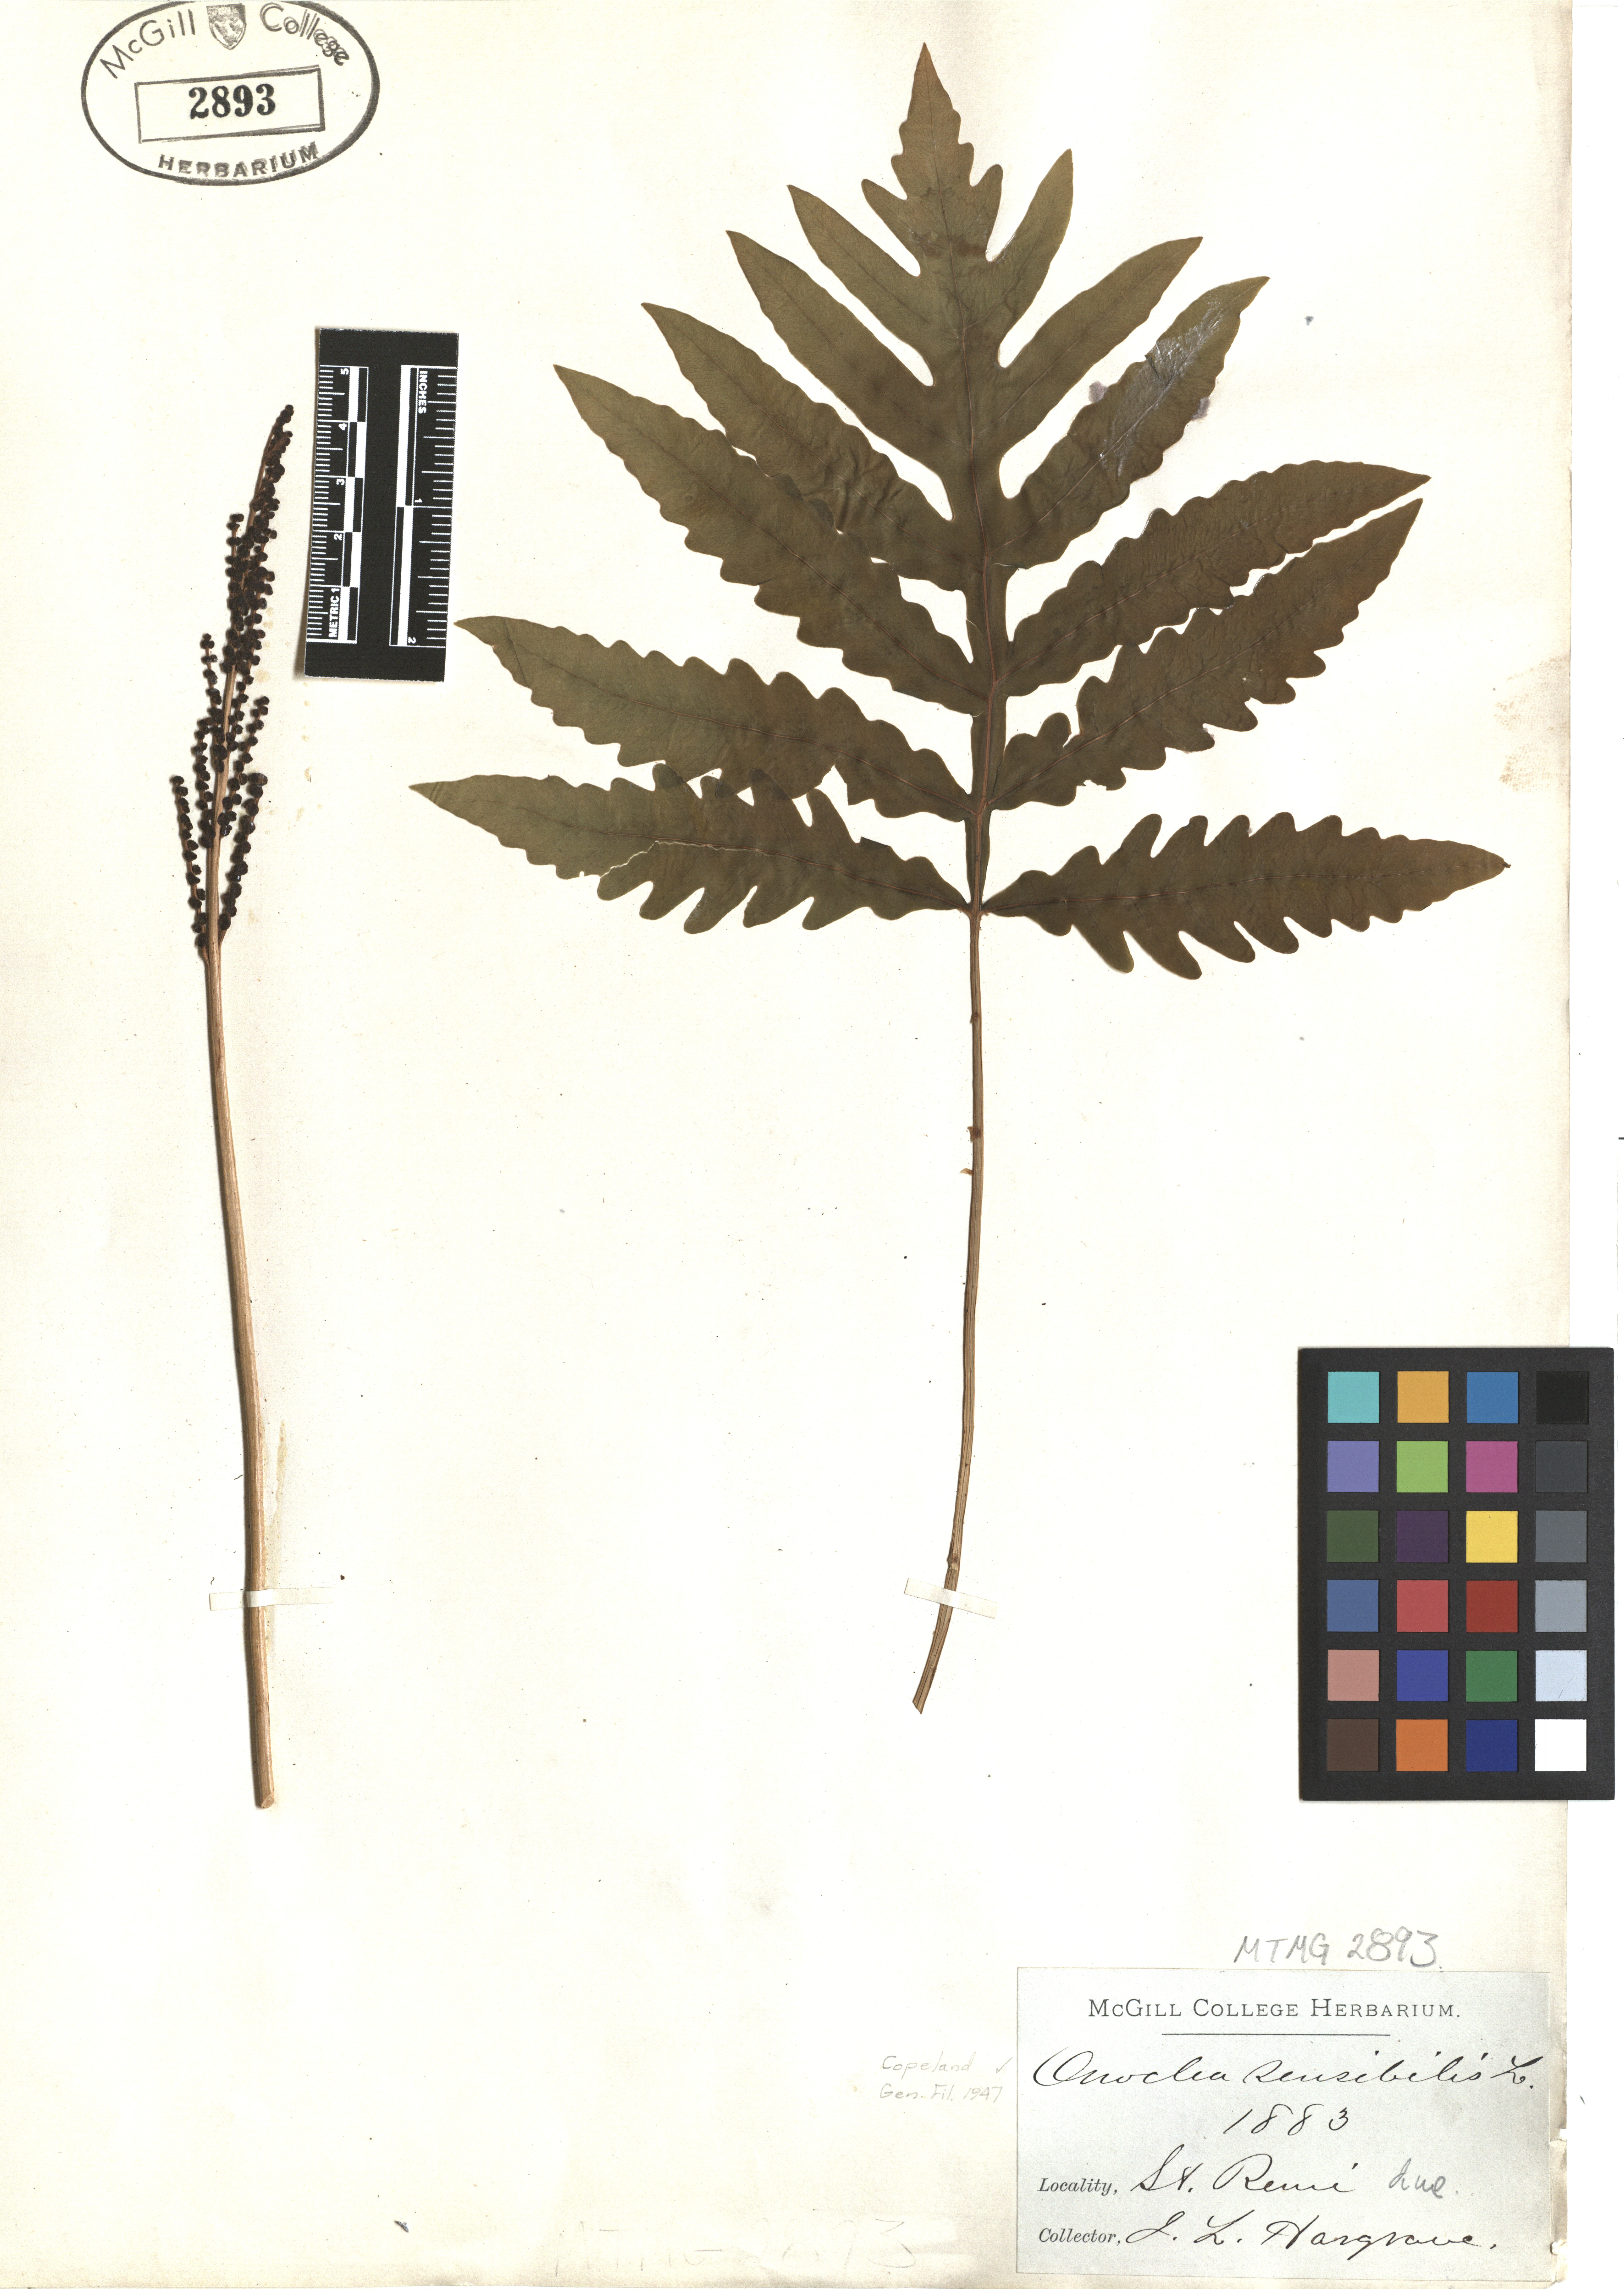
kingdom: Plantae
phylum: Tracheophyta
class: Polypodiopsida
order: Polypodiales
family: Onocleaceae
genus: Onoclea
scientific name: Onoclea sensibilis
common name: Sensitive fern
